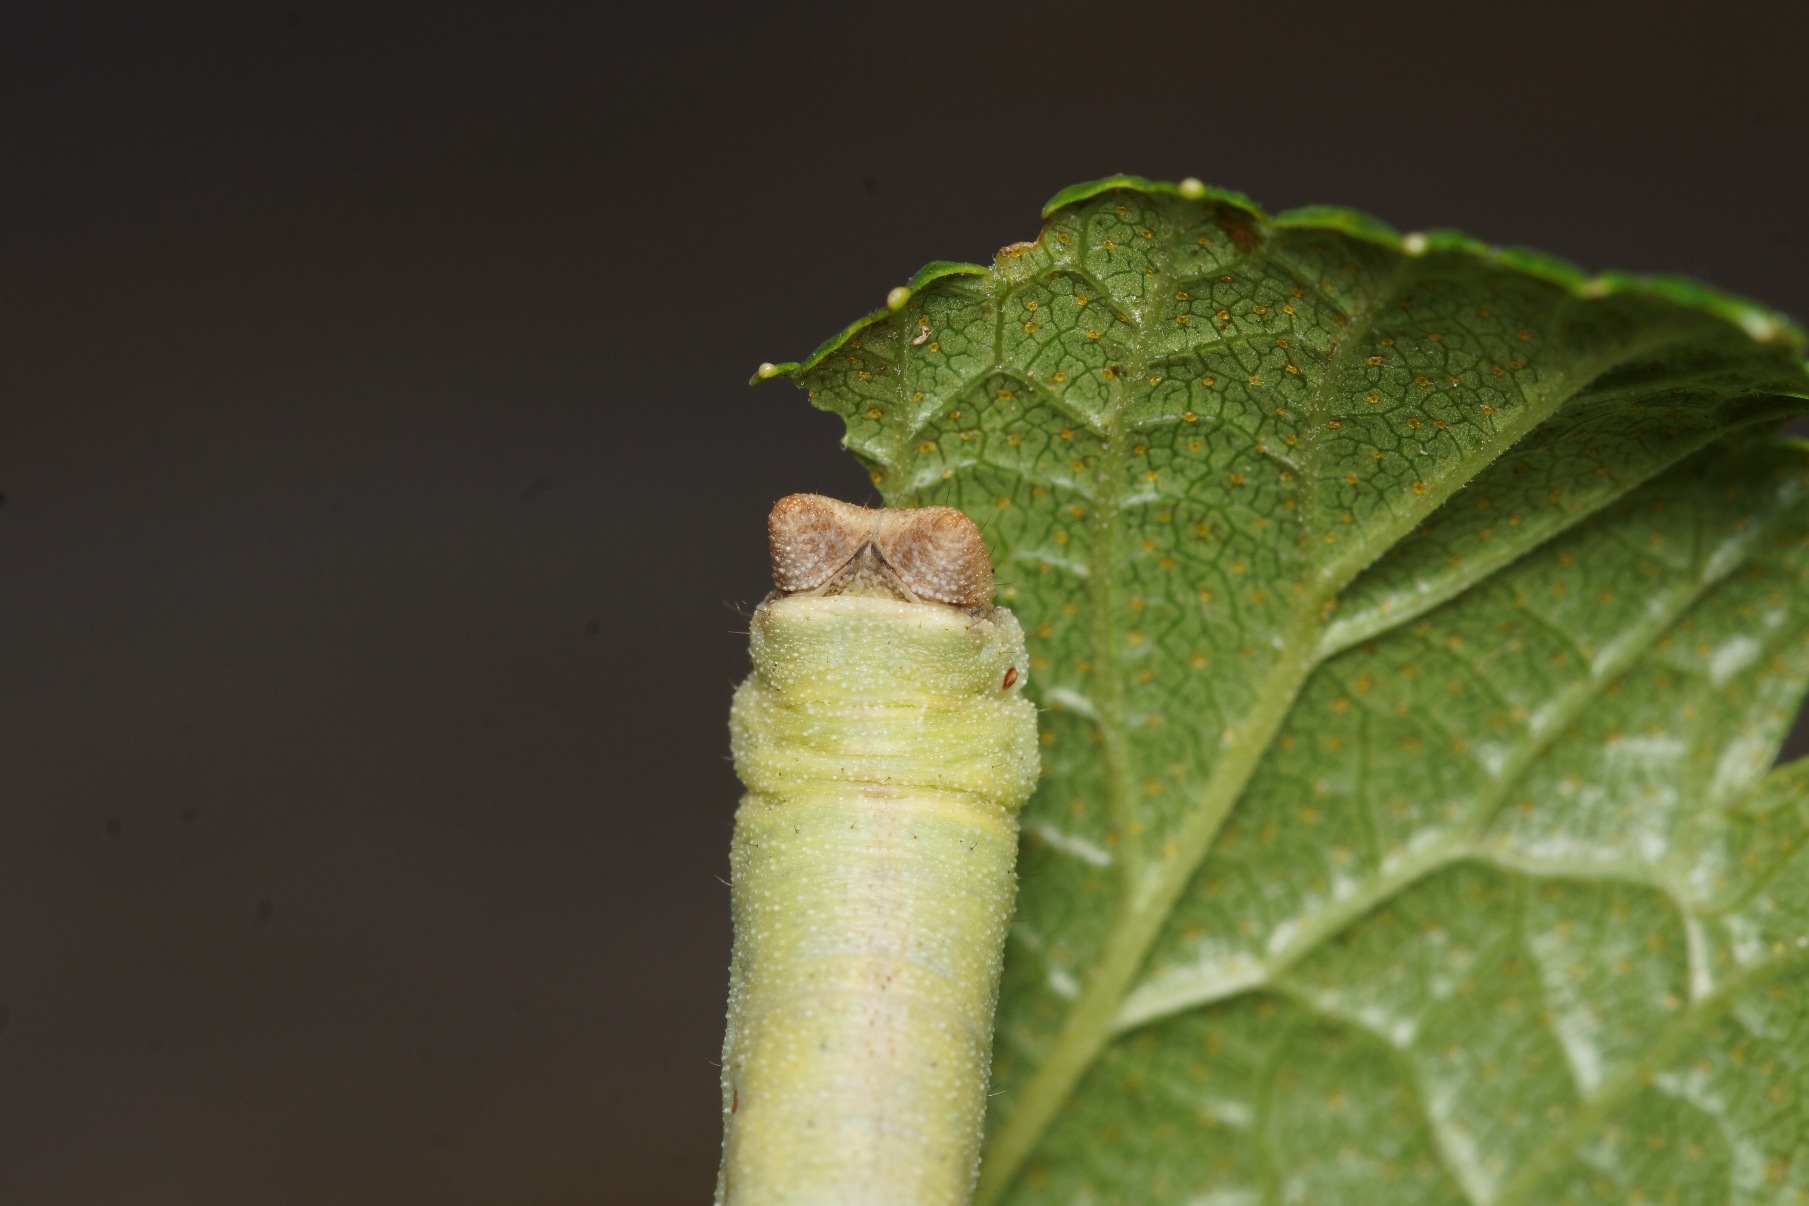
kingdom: Animalia
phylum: Arthropoda
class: Insecta
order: Lepidoptera
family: Geometridae
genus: Biston
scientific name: Biston betularia
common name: Birkemåler
